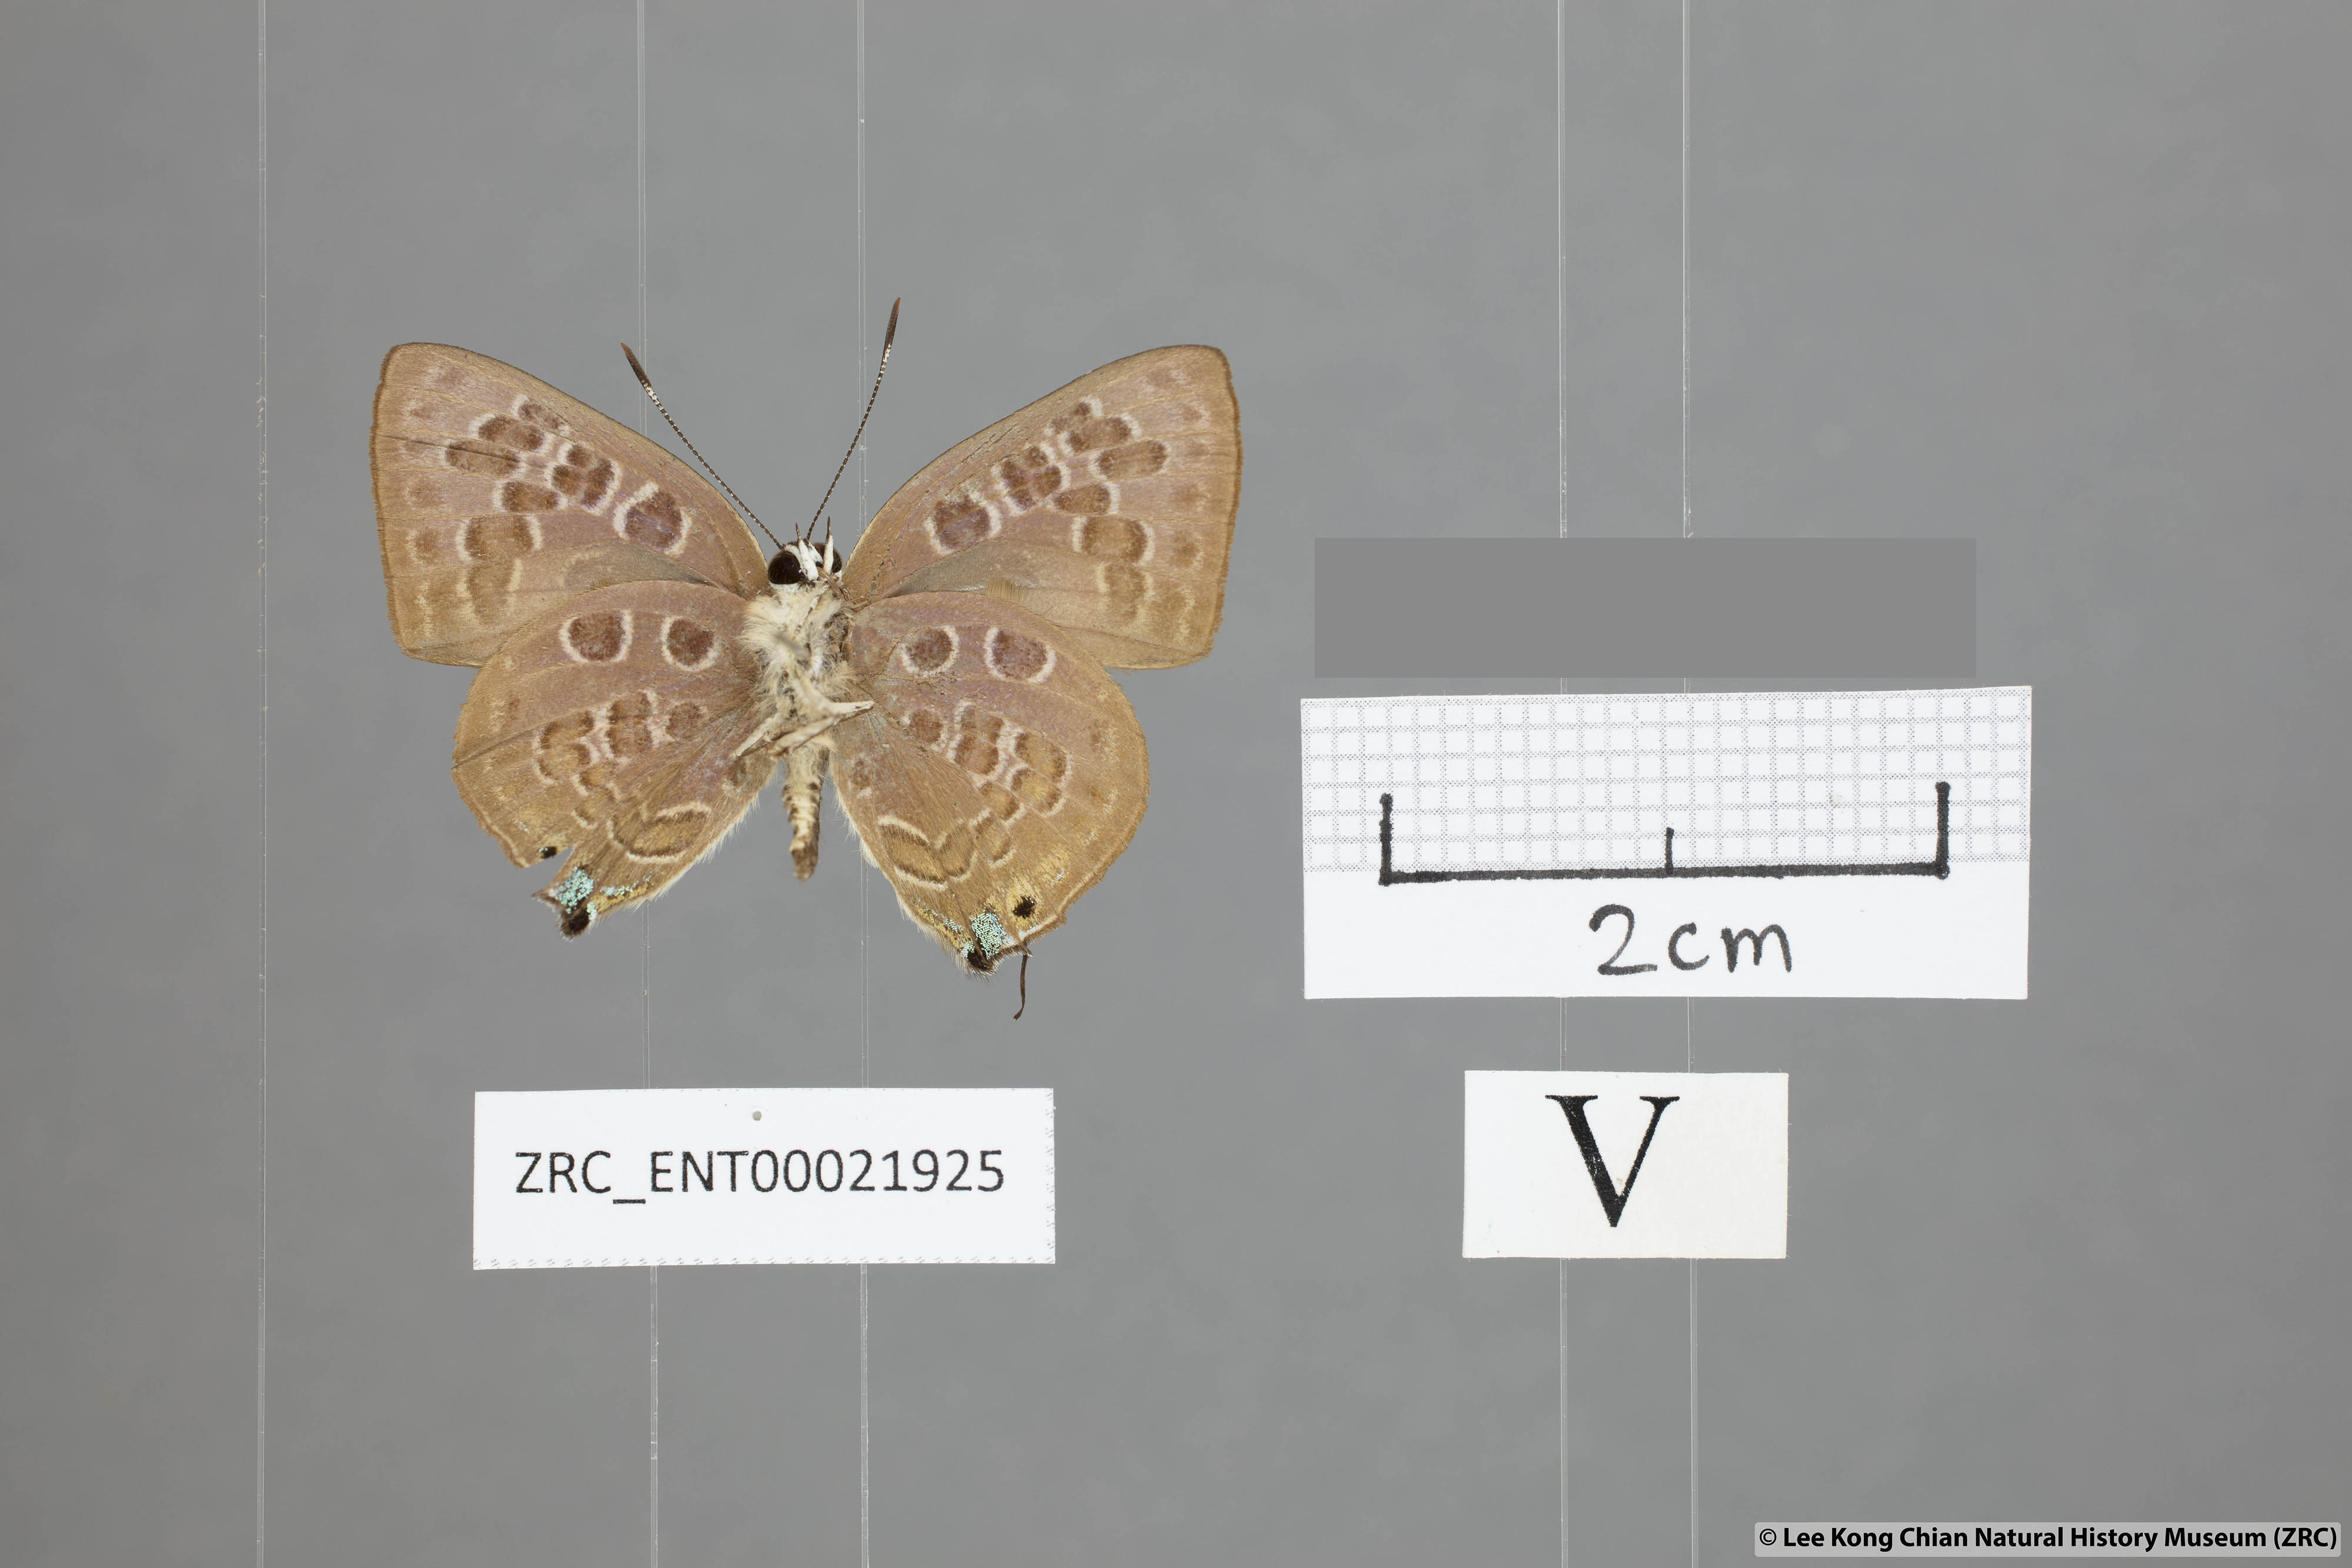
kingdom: Animalia
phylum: Arthropoda
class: Insecta
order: Lepidoptera
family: Lycaenidae
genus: Deudorix
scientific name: Deudorix
